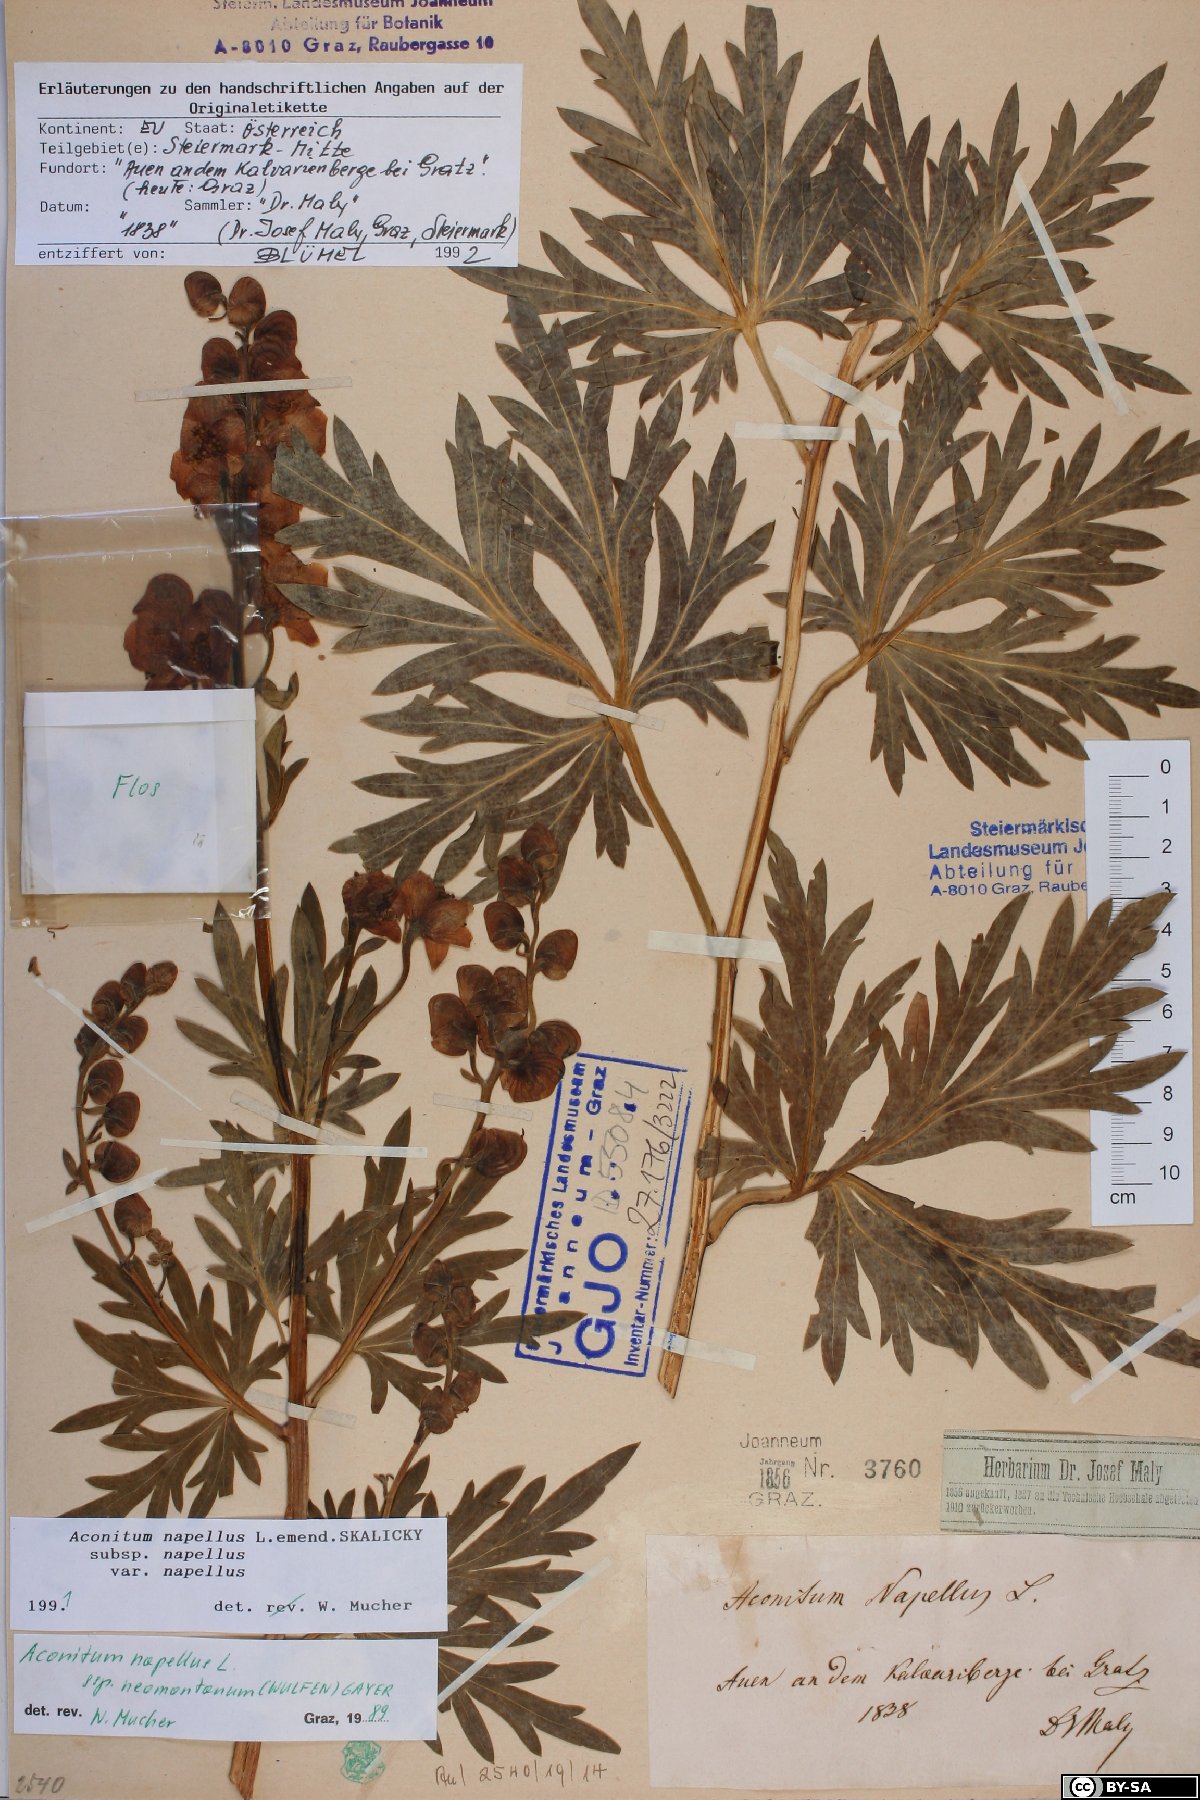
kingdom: Plantae
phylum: Tracheophyta
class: Magnoliopsida
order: Ranunculales
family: Ranunculaceae
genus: Aconitum
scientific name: Aconitum napellus
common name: Garden monkshood
